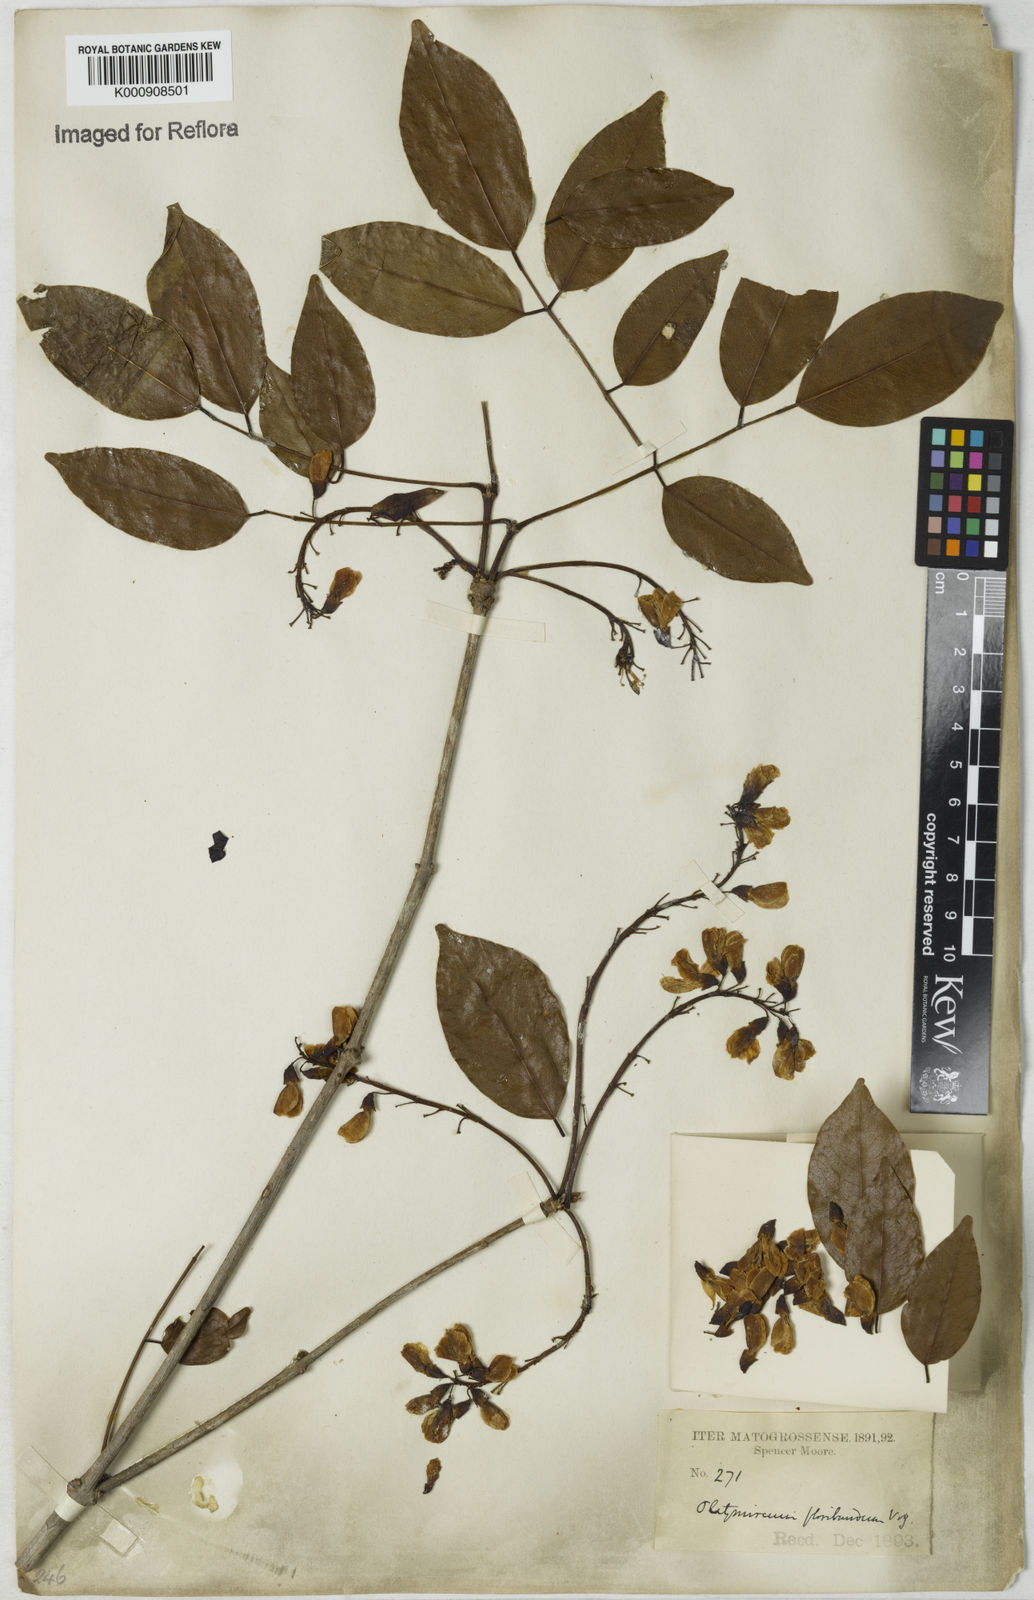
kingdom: Plantae
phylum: Tracheophyta
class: Magnoliopsida
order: Fabales
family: Fabaceae
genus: Platymiscium
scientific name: Platymiscium floribundum
